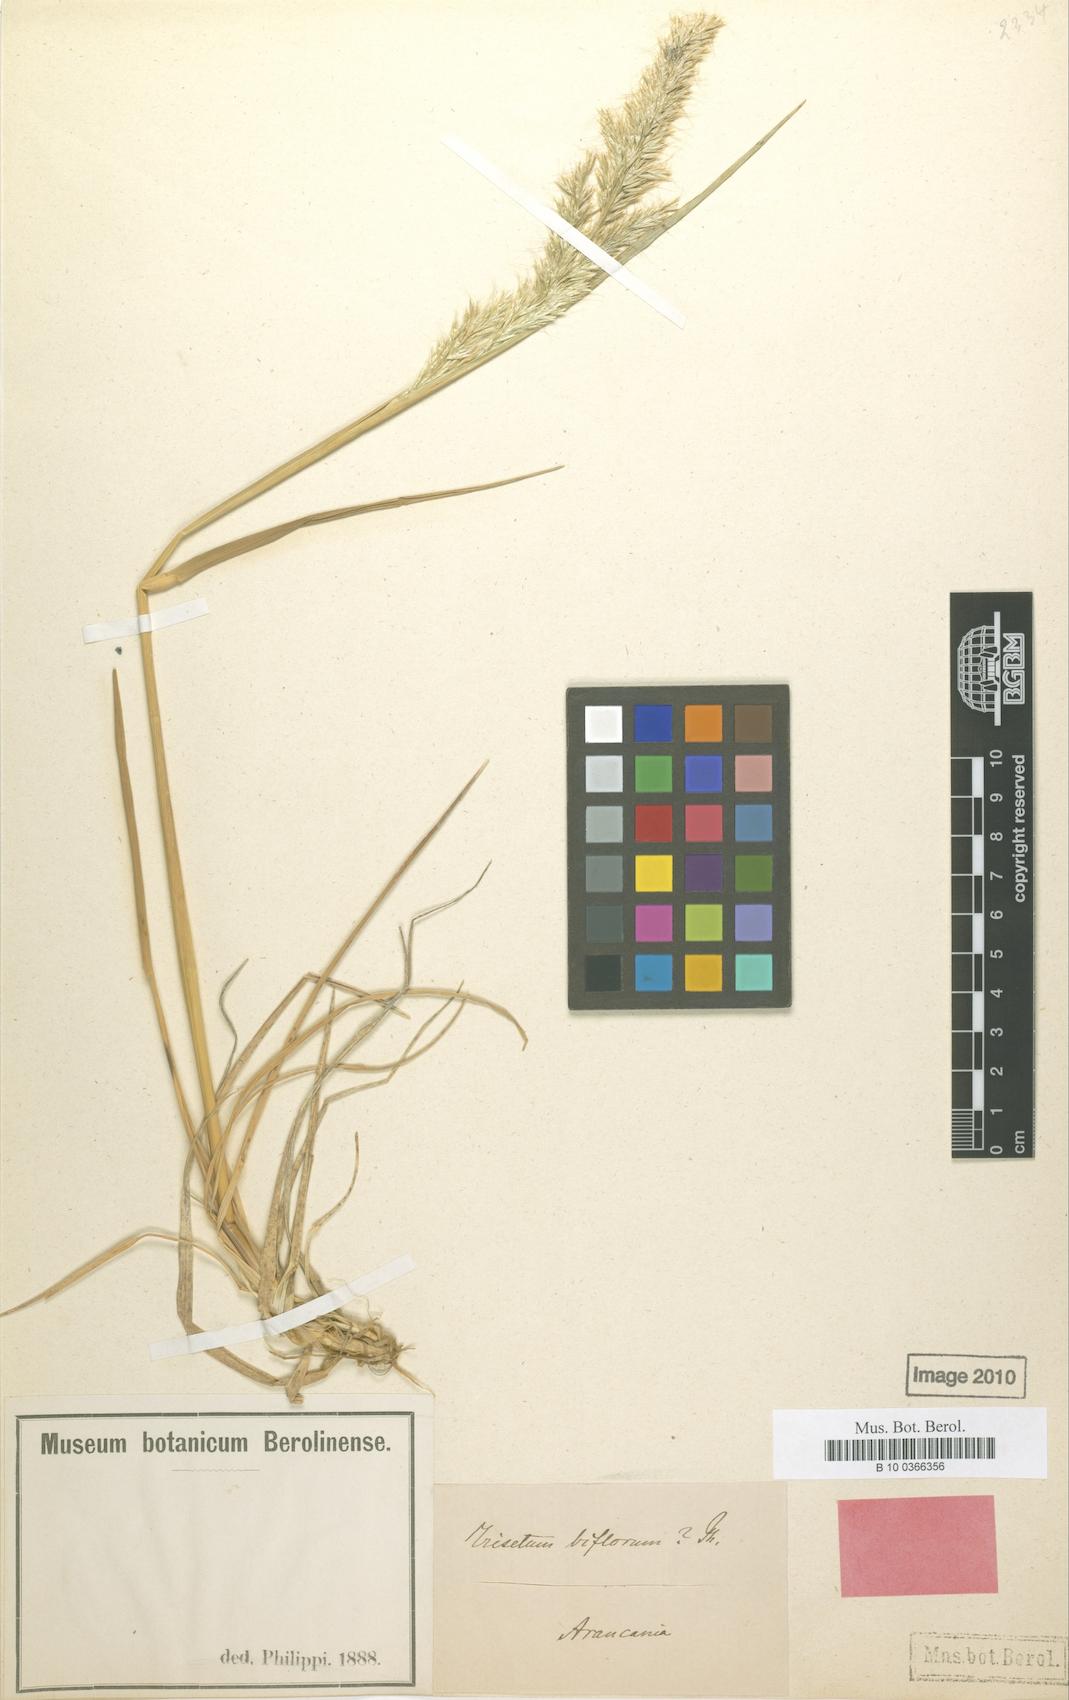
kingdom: Plantae
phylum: Tracheophyta
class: Liliopsida
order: Poales
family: Poaceae
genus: Koeleria
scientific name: Koeleria spicata
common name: Mountain trisetum
